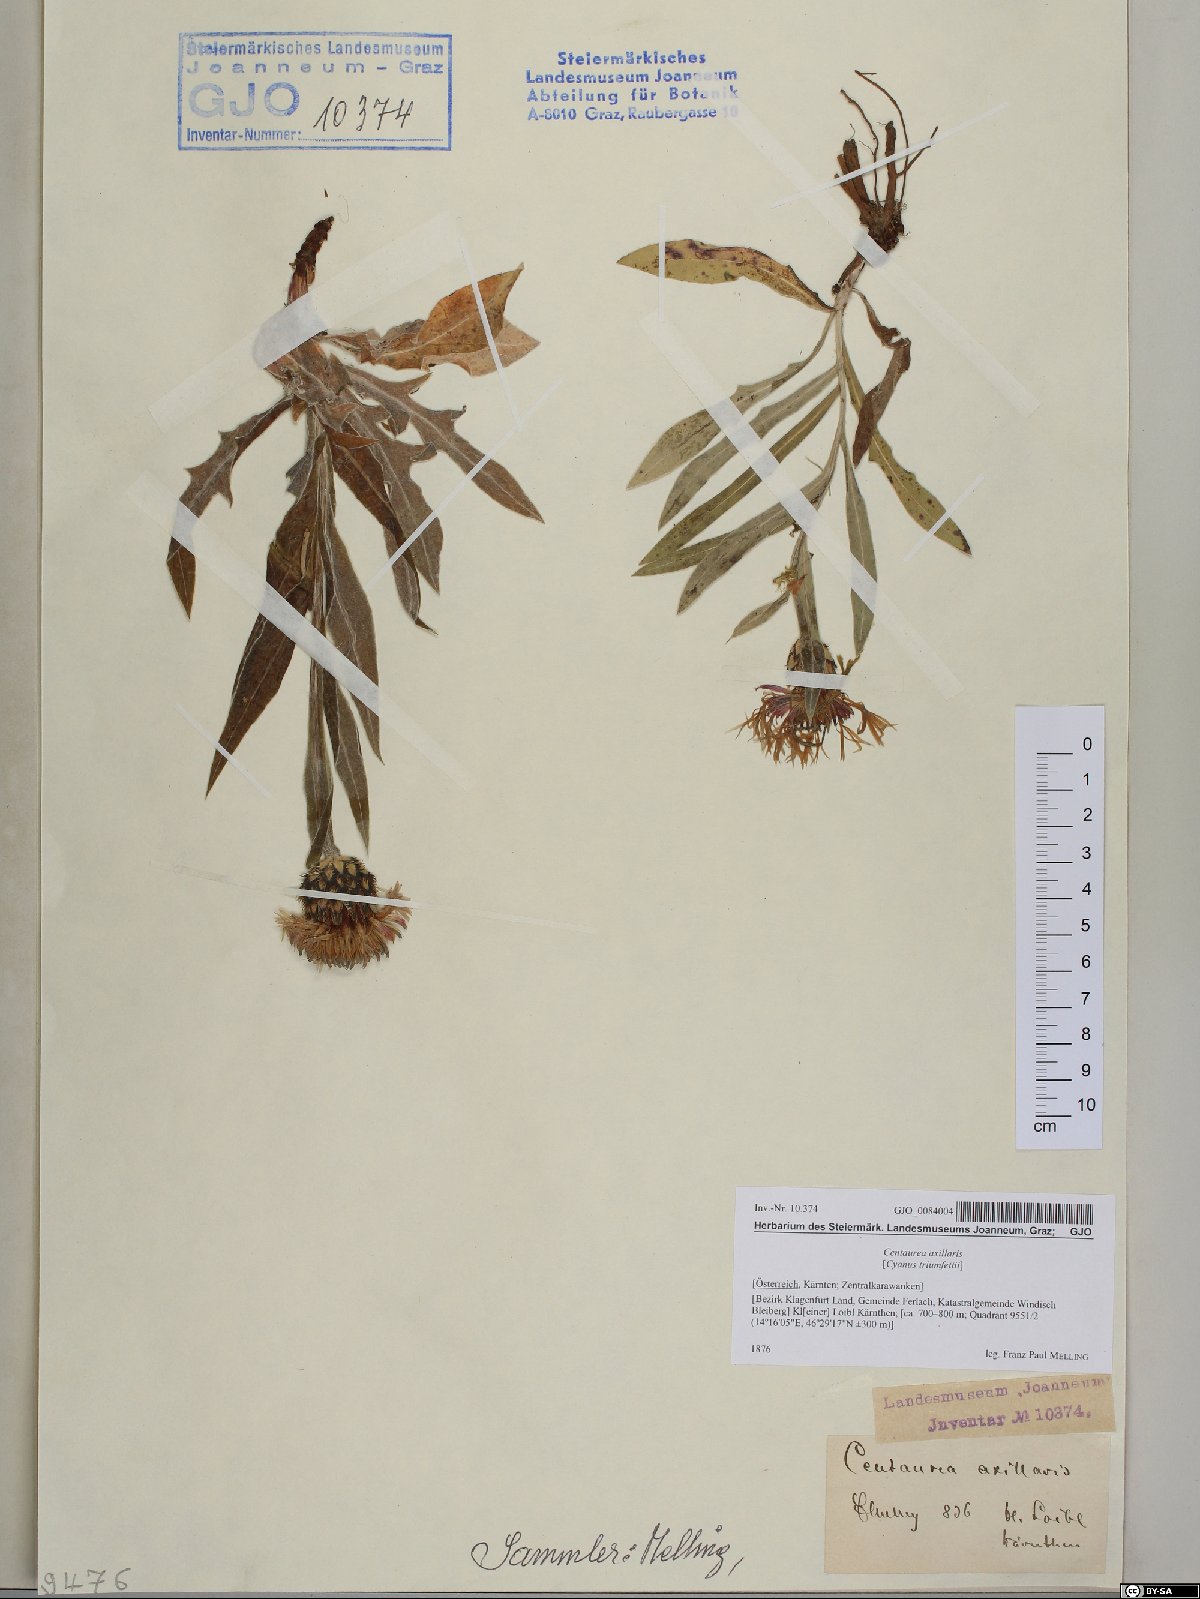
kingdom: Plantae
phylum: Tracheophyta
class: Magnoliopsida
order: Asterales
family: Asteraceae
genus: Centaurea
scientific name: Centaurea triumfettii
